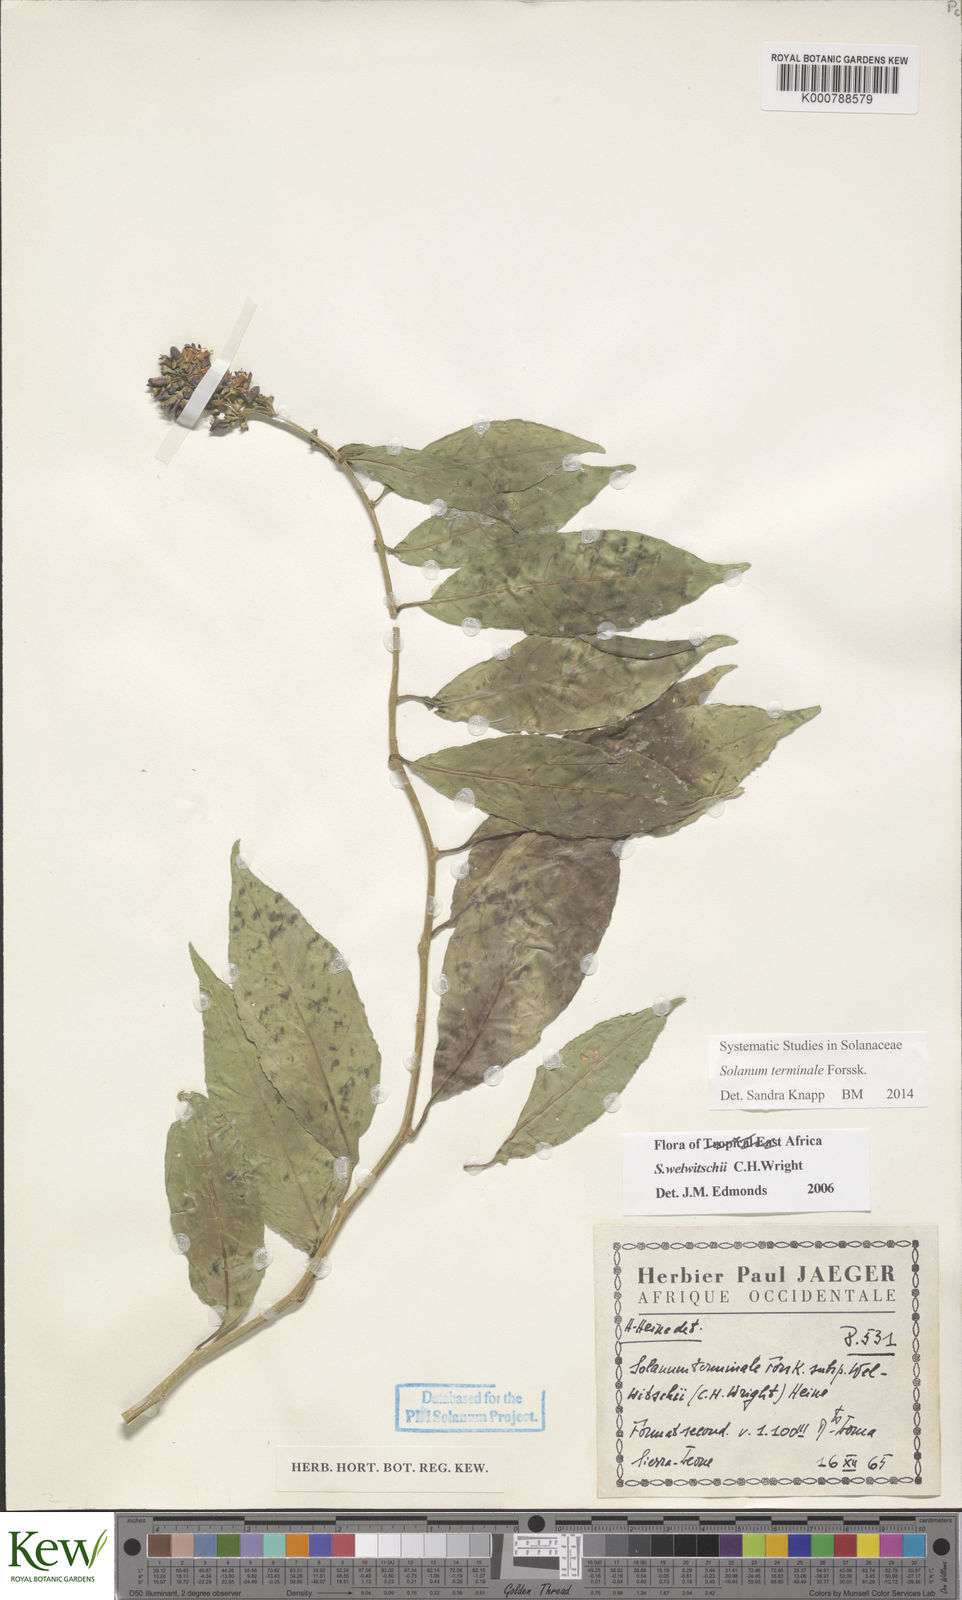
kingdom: Plantae
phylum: Tracheophyta
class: Magnoliopsida
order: Solanales
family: Solanaceae
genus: Solanum
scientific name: Solanum terminale
